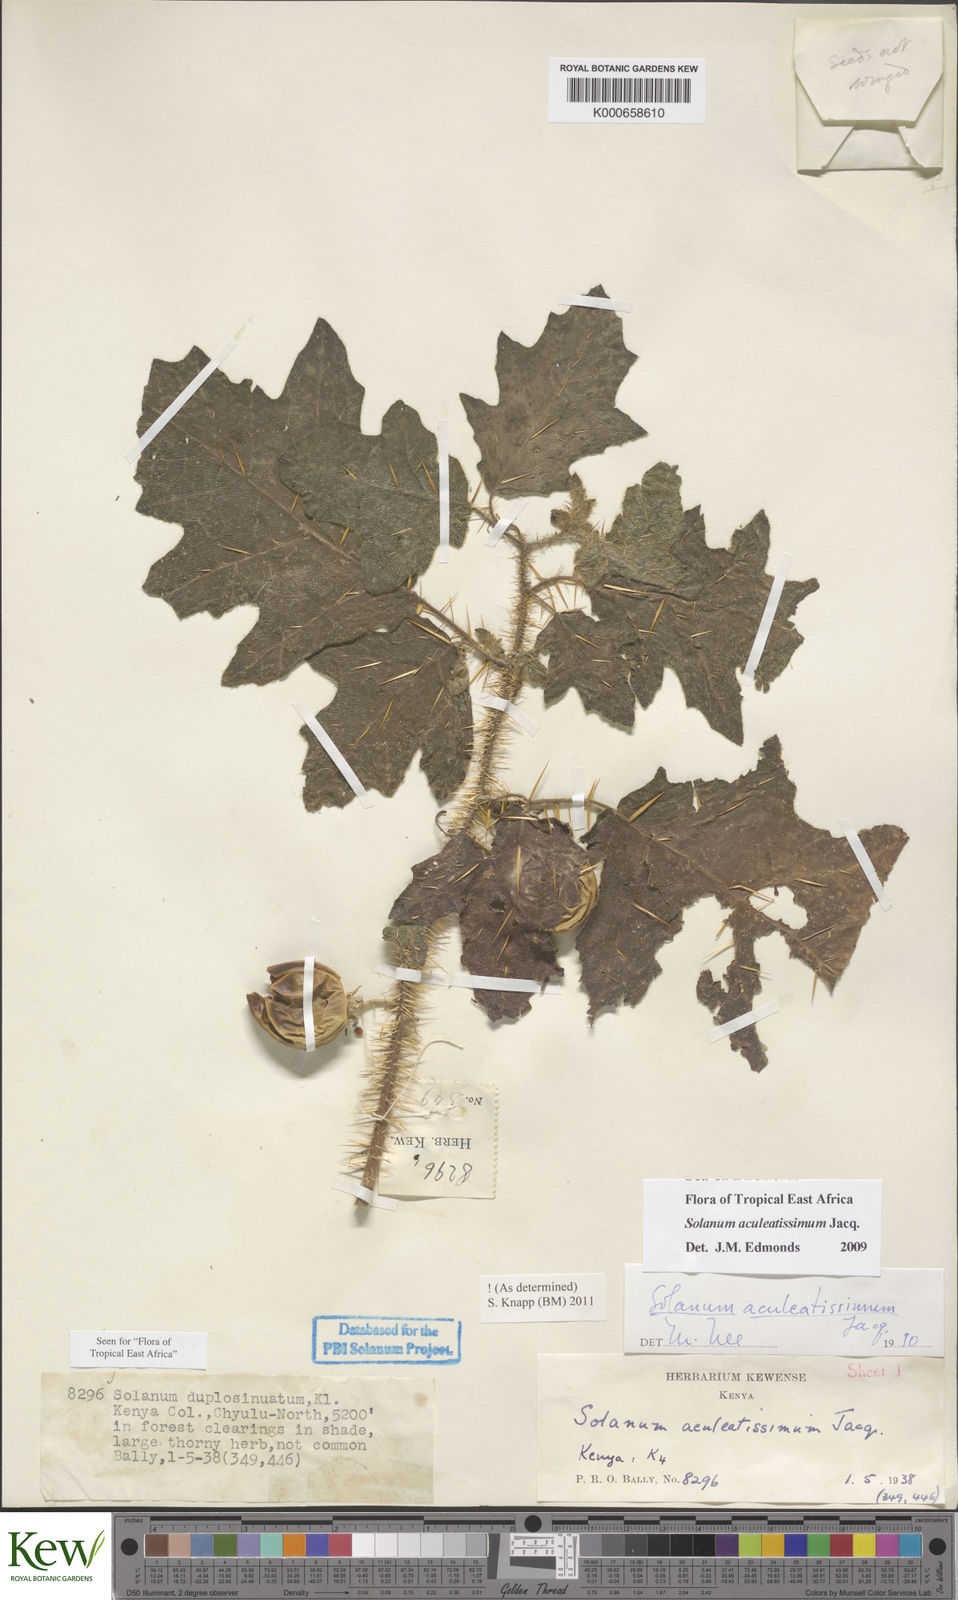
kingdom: Plantae
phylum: Tracheophyta
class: Magnoliopsida
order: Solanales
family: Solanaceae
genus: Solanum
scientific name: Solanum aculeatissimum
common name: Dutch eggplant
